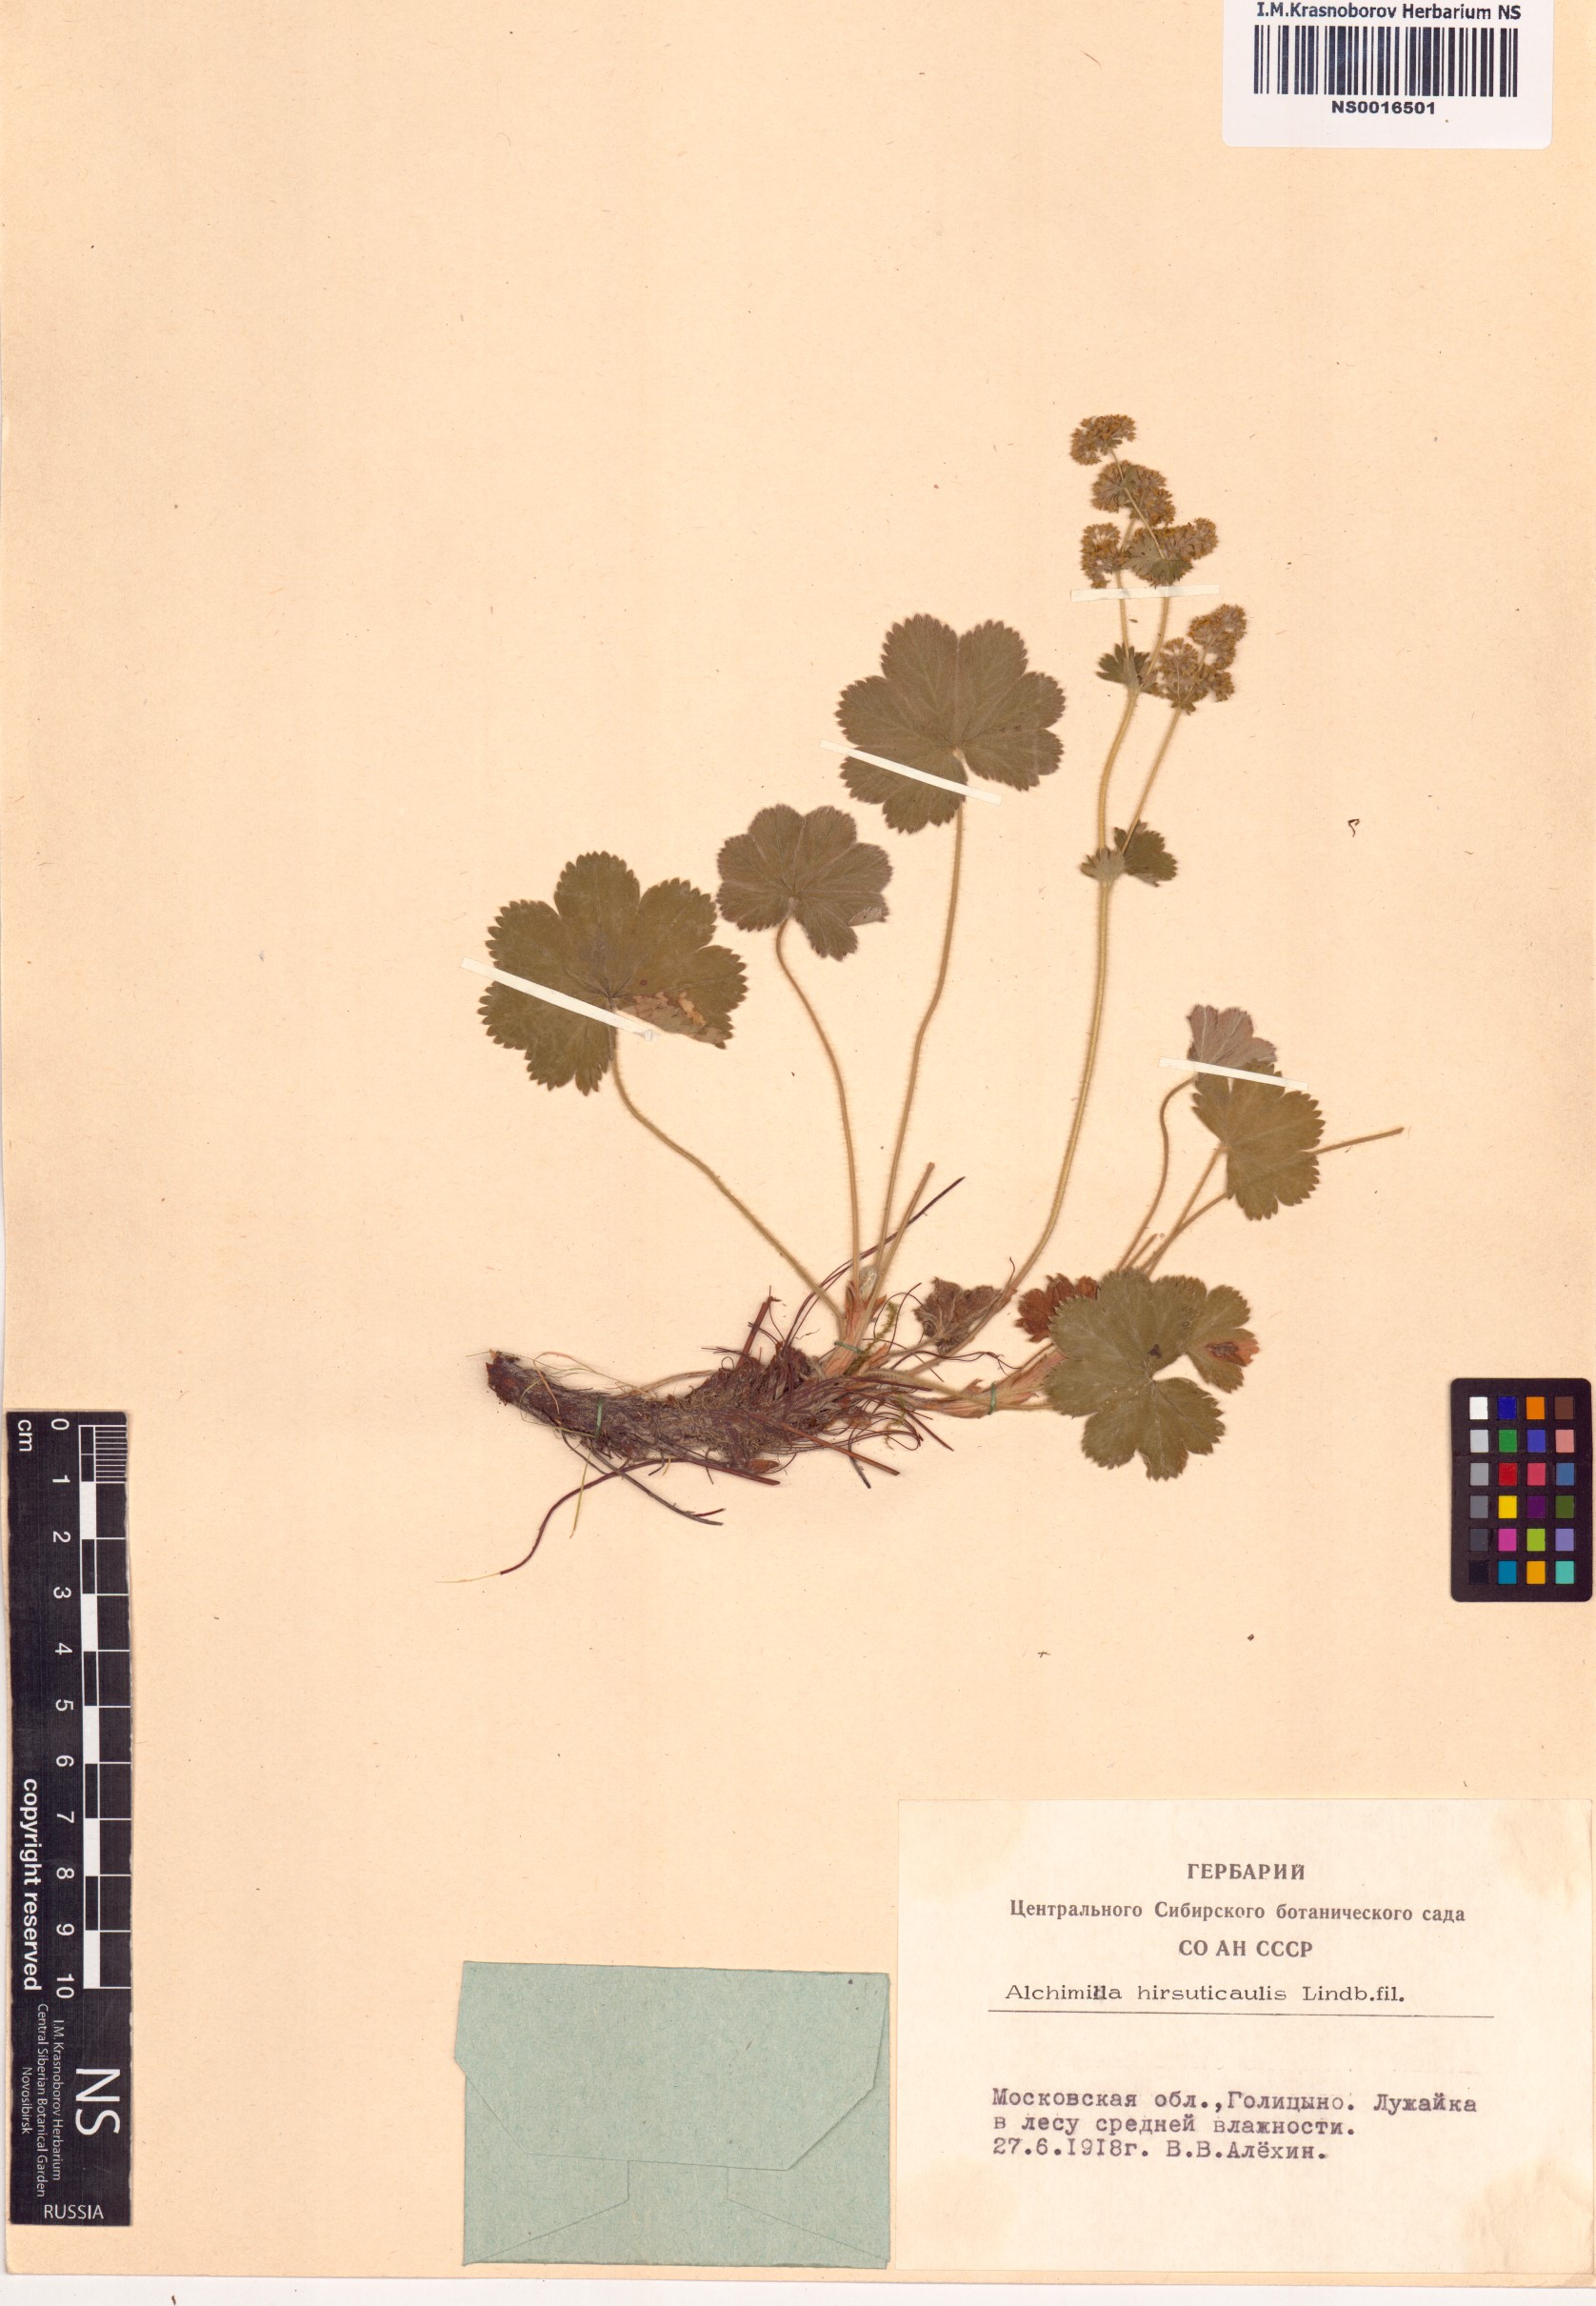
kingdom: Plantae
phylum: Tracheophyta
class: Magnoliopsida
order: Rosales
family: Rosaceae
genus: Alchemilla
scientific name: Alchemilla hirsuticaulis
